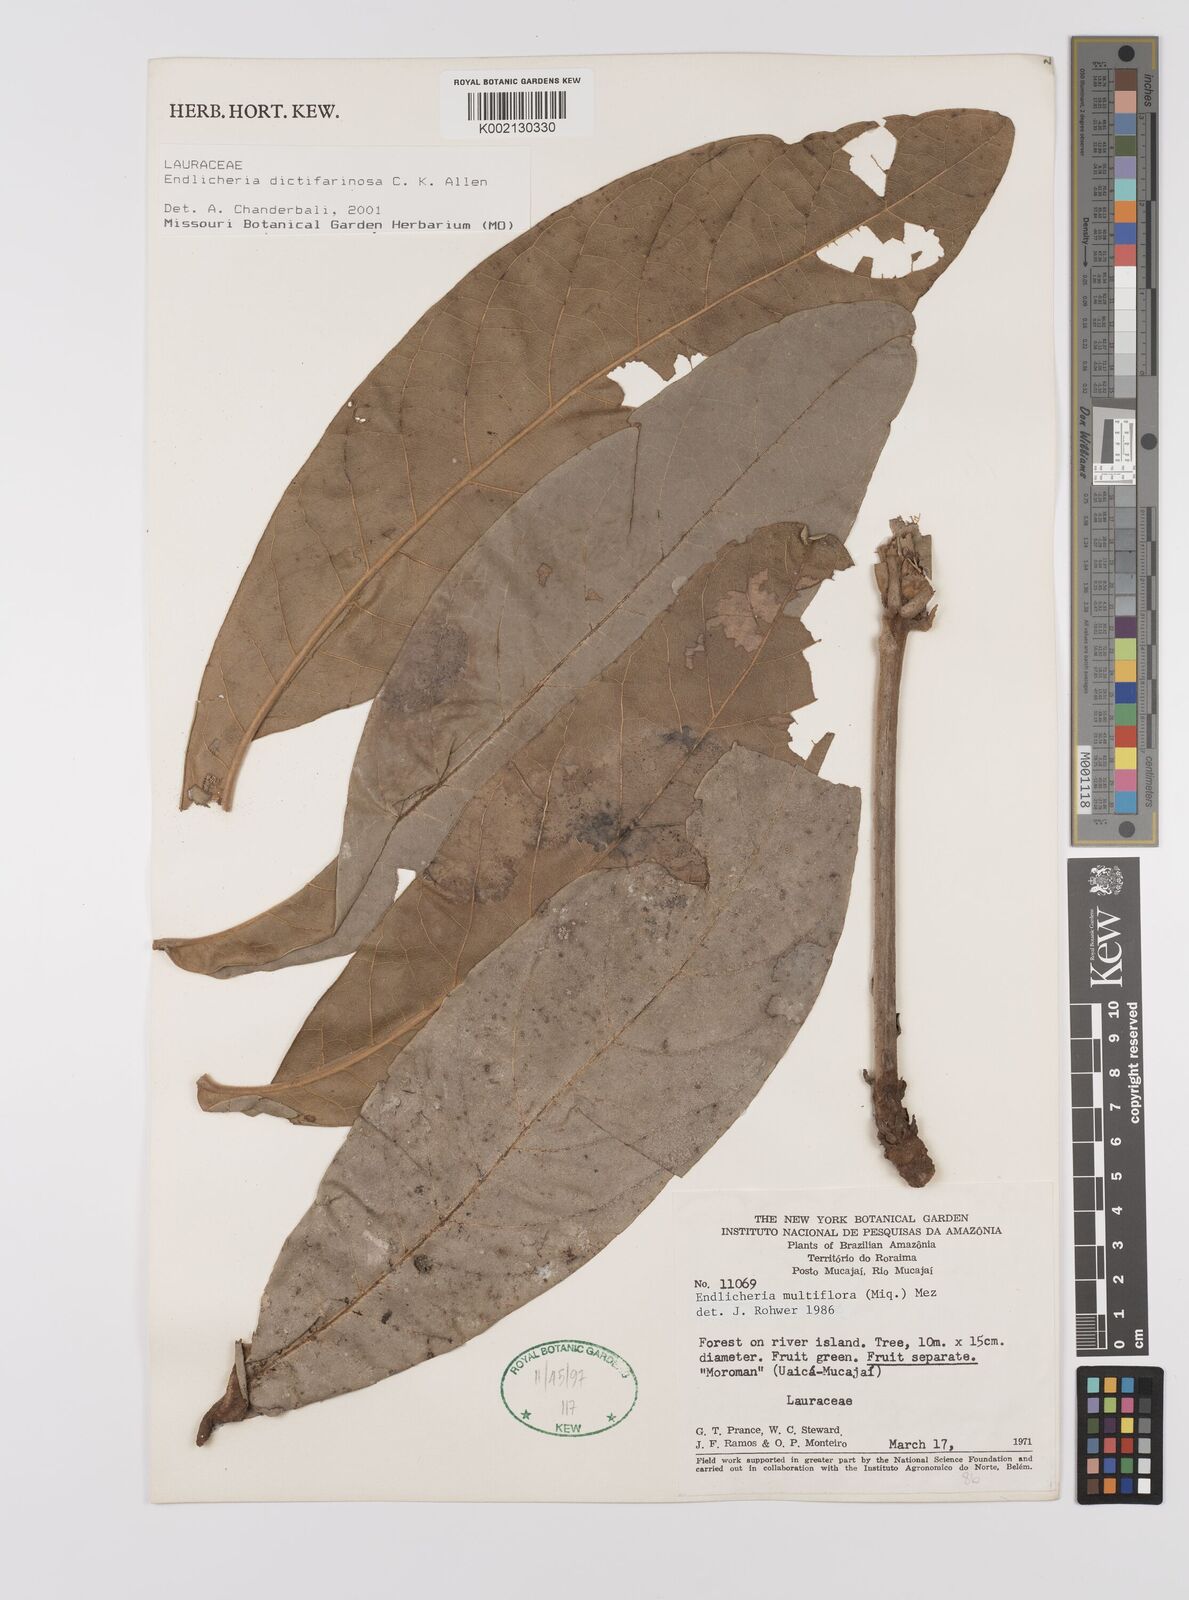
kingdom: Plantae
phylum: Tracheophyta
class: Magnoliopsida
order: Laurales
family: Lauraceae
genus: Endlicheria
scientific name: Endlicheria dictifarinosa
